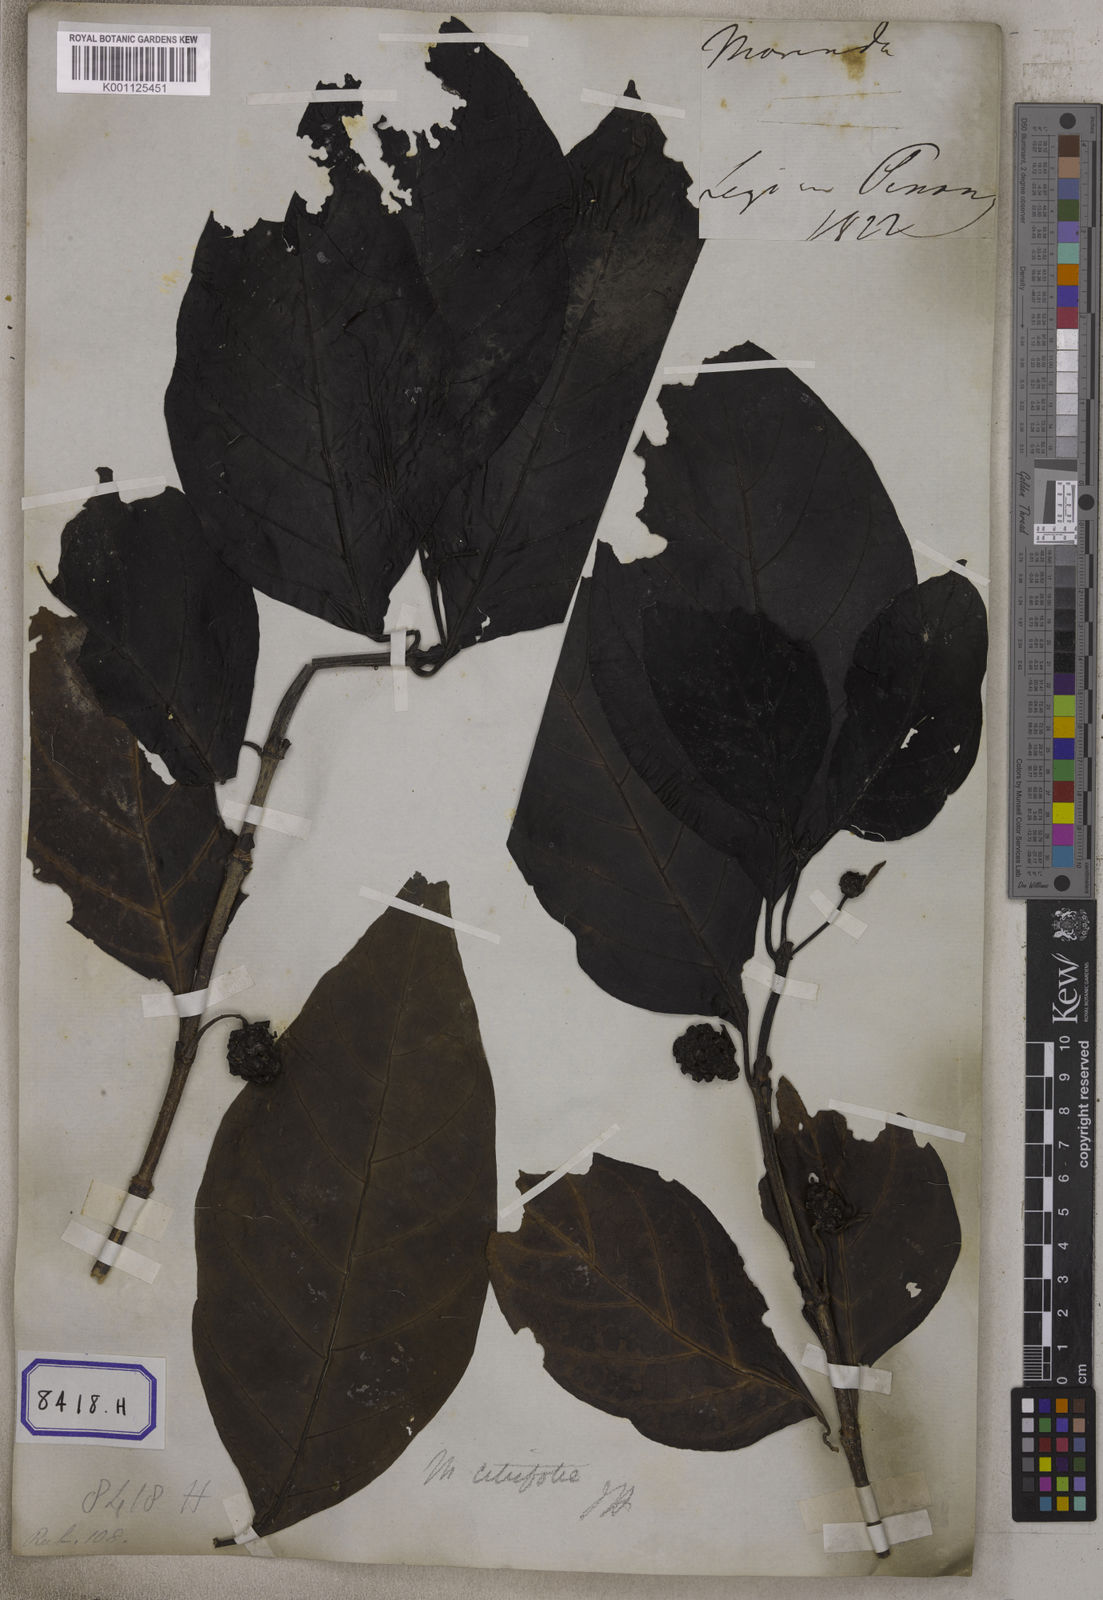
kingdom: Plantae
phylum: Tracheophyta
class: Magnoliopsida
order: Gentianales
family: Rubiaceae
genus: Morinda
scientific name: Morinda citrifolia
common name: Indian-mulberry
